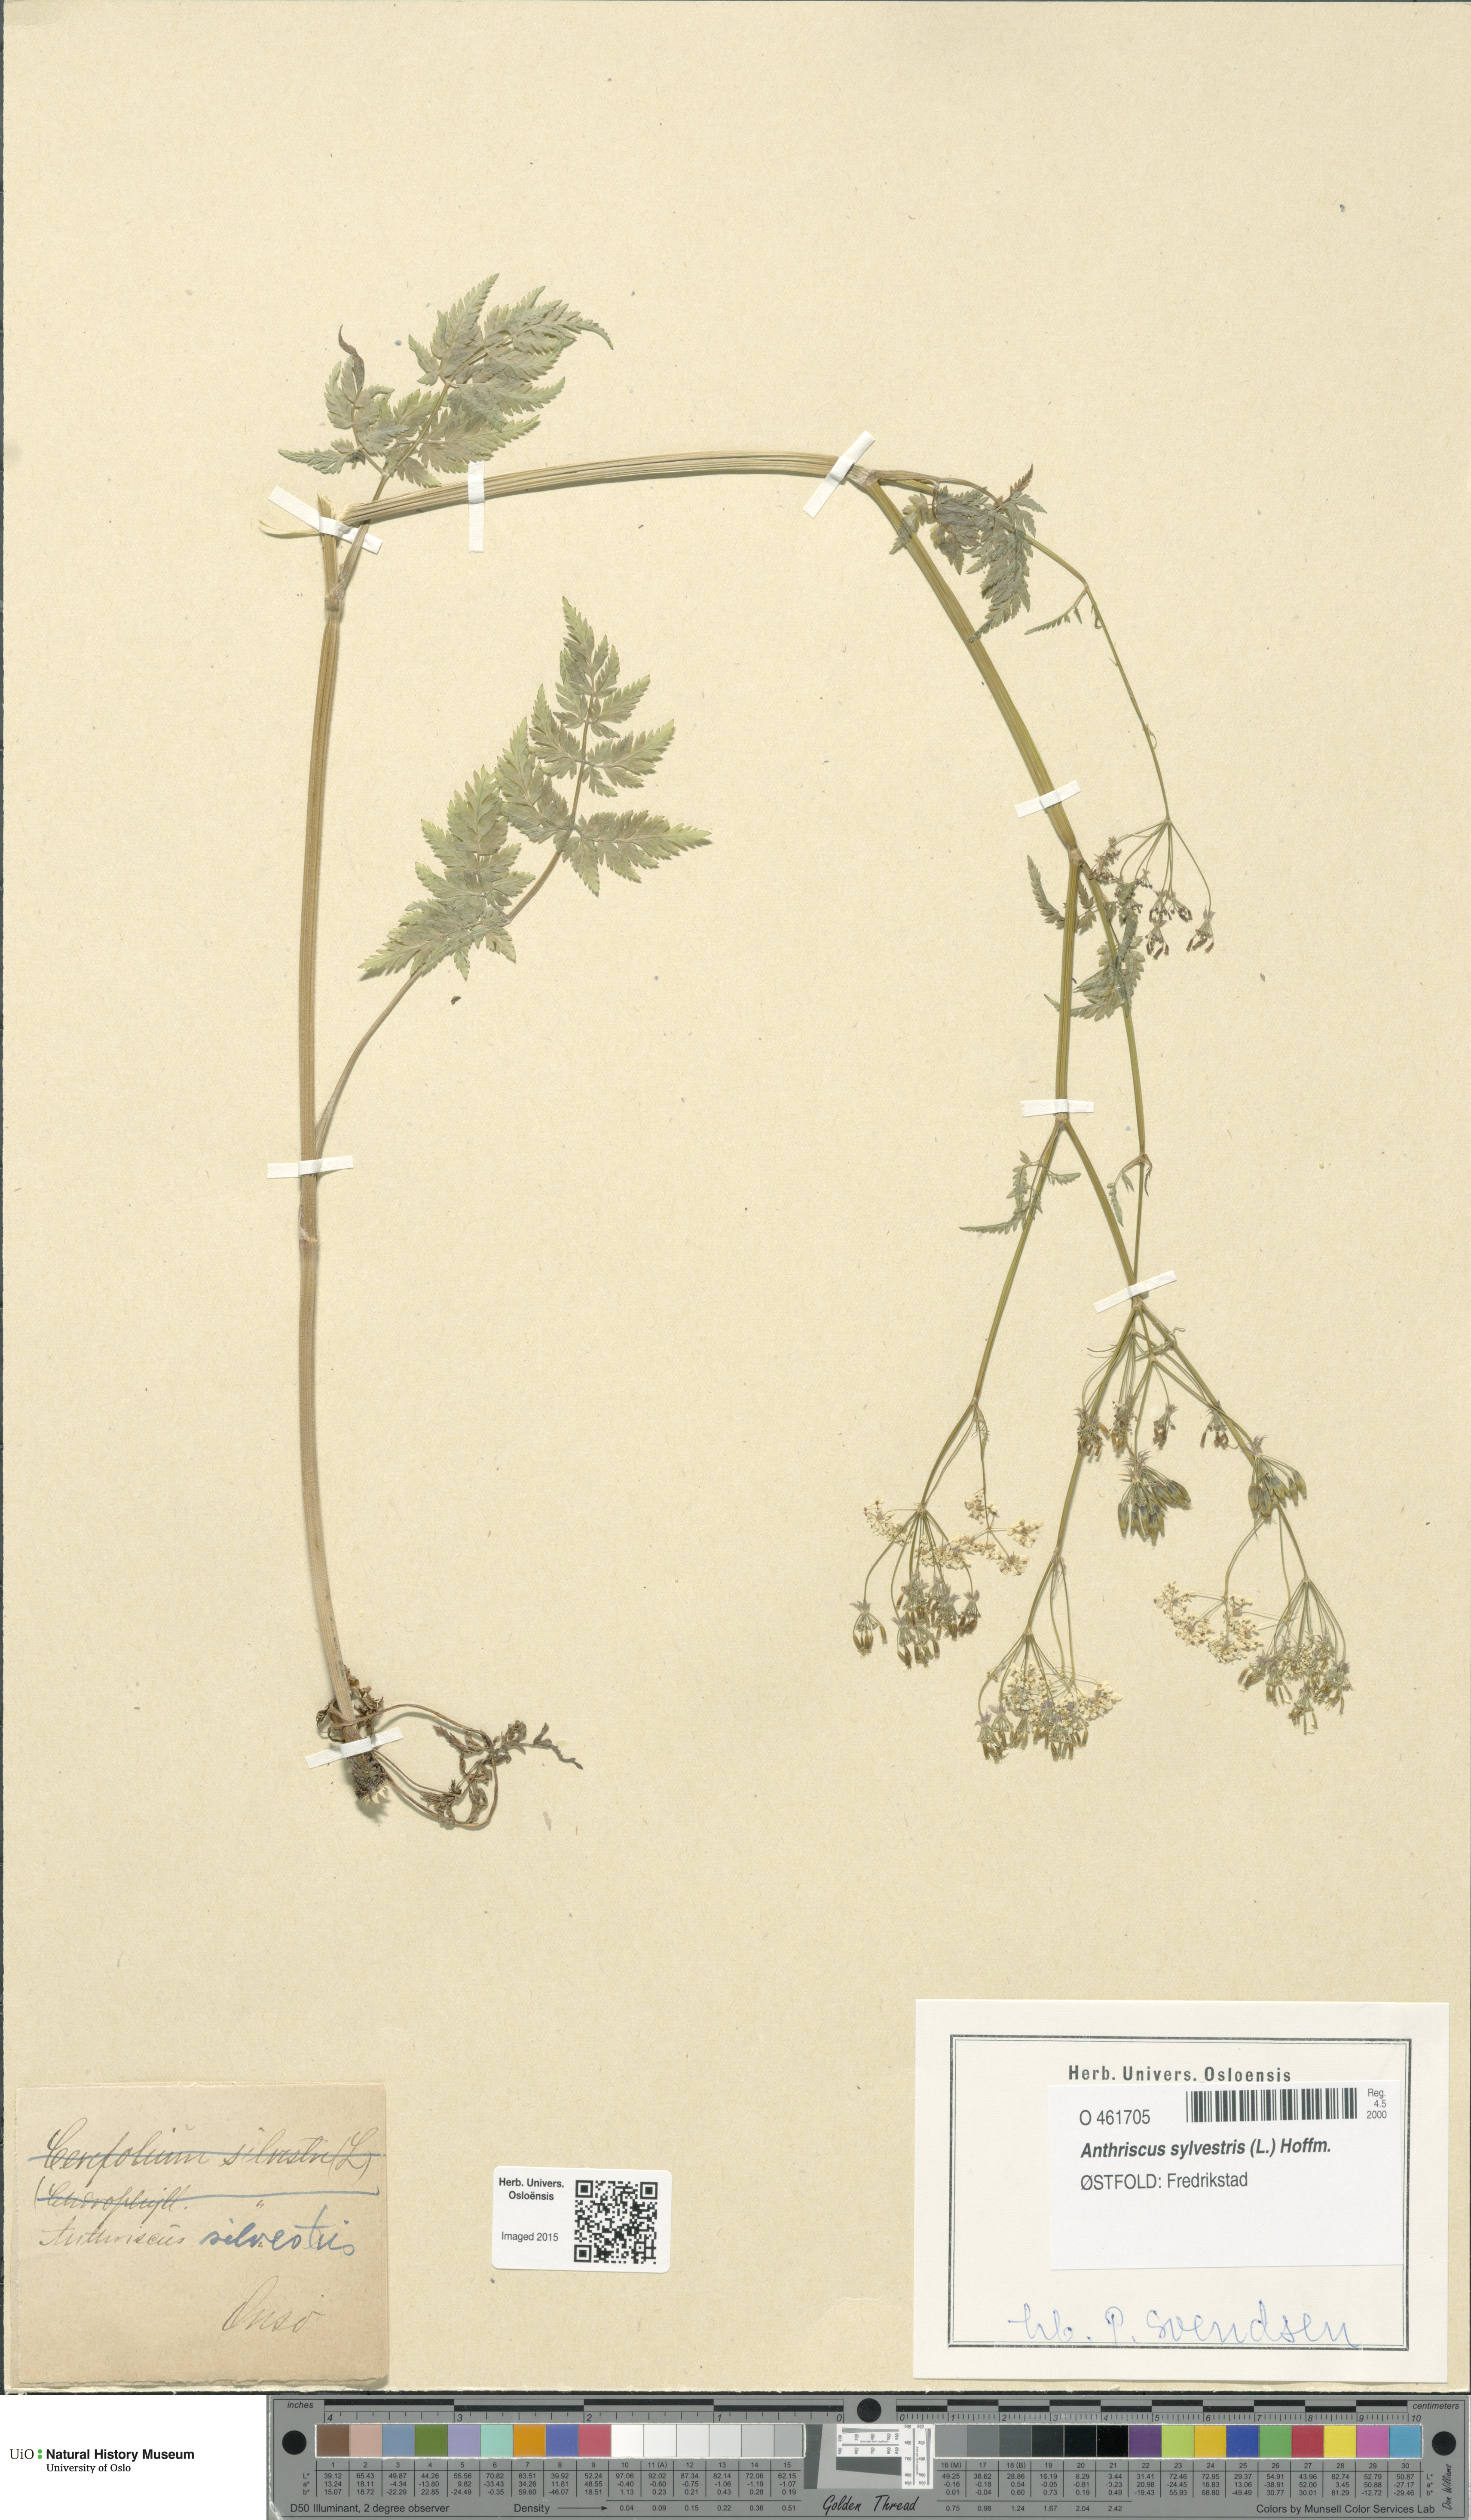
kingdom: Plantae
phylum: Tracheophyta
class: Magnoliopsida
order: Apiales
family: Apiaceae
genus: Anthriscus
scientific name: Anthriscus sylvestris
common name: Cow parsley
